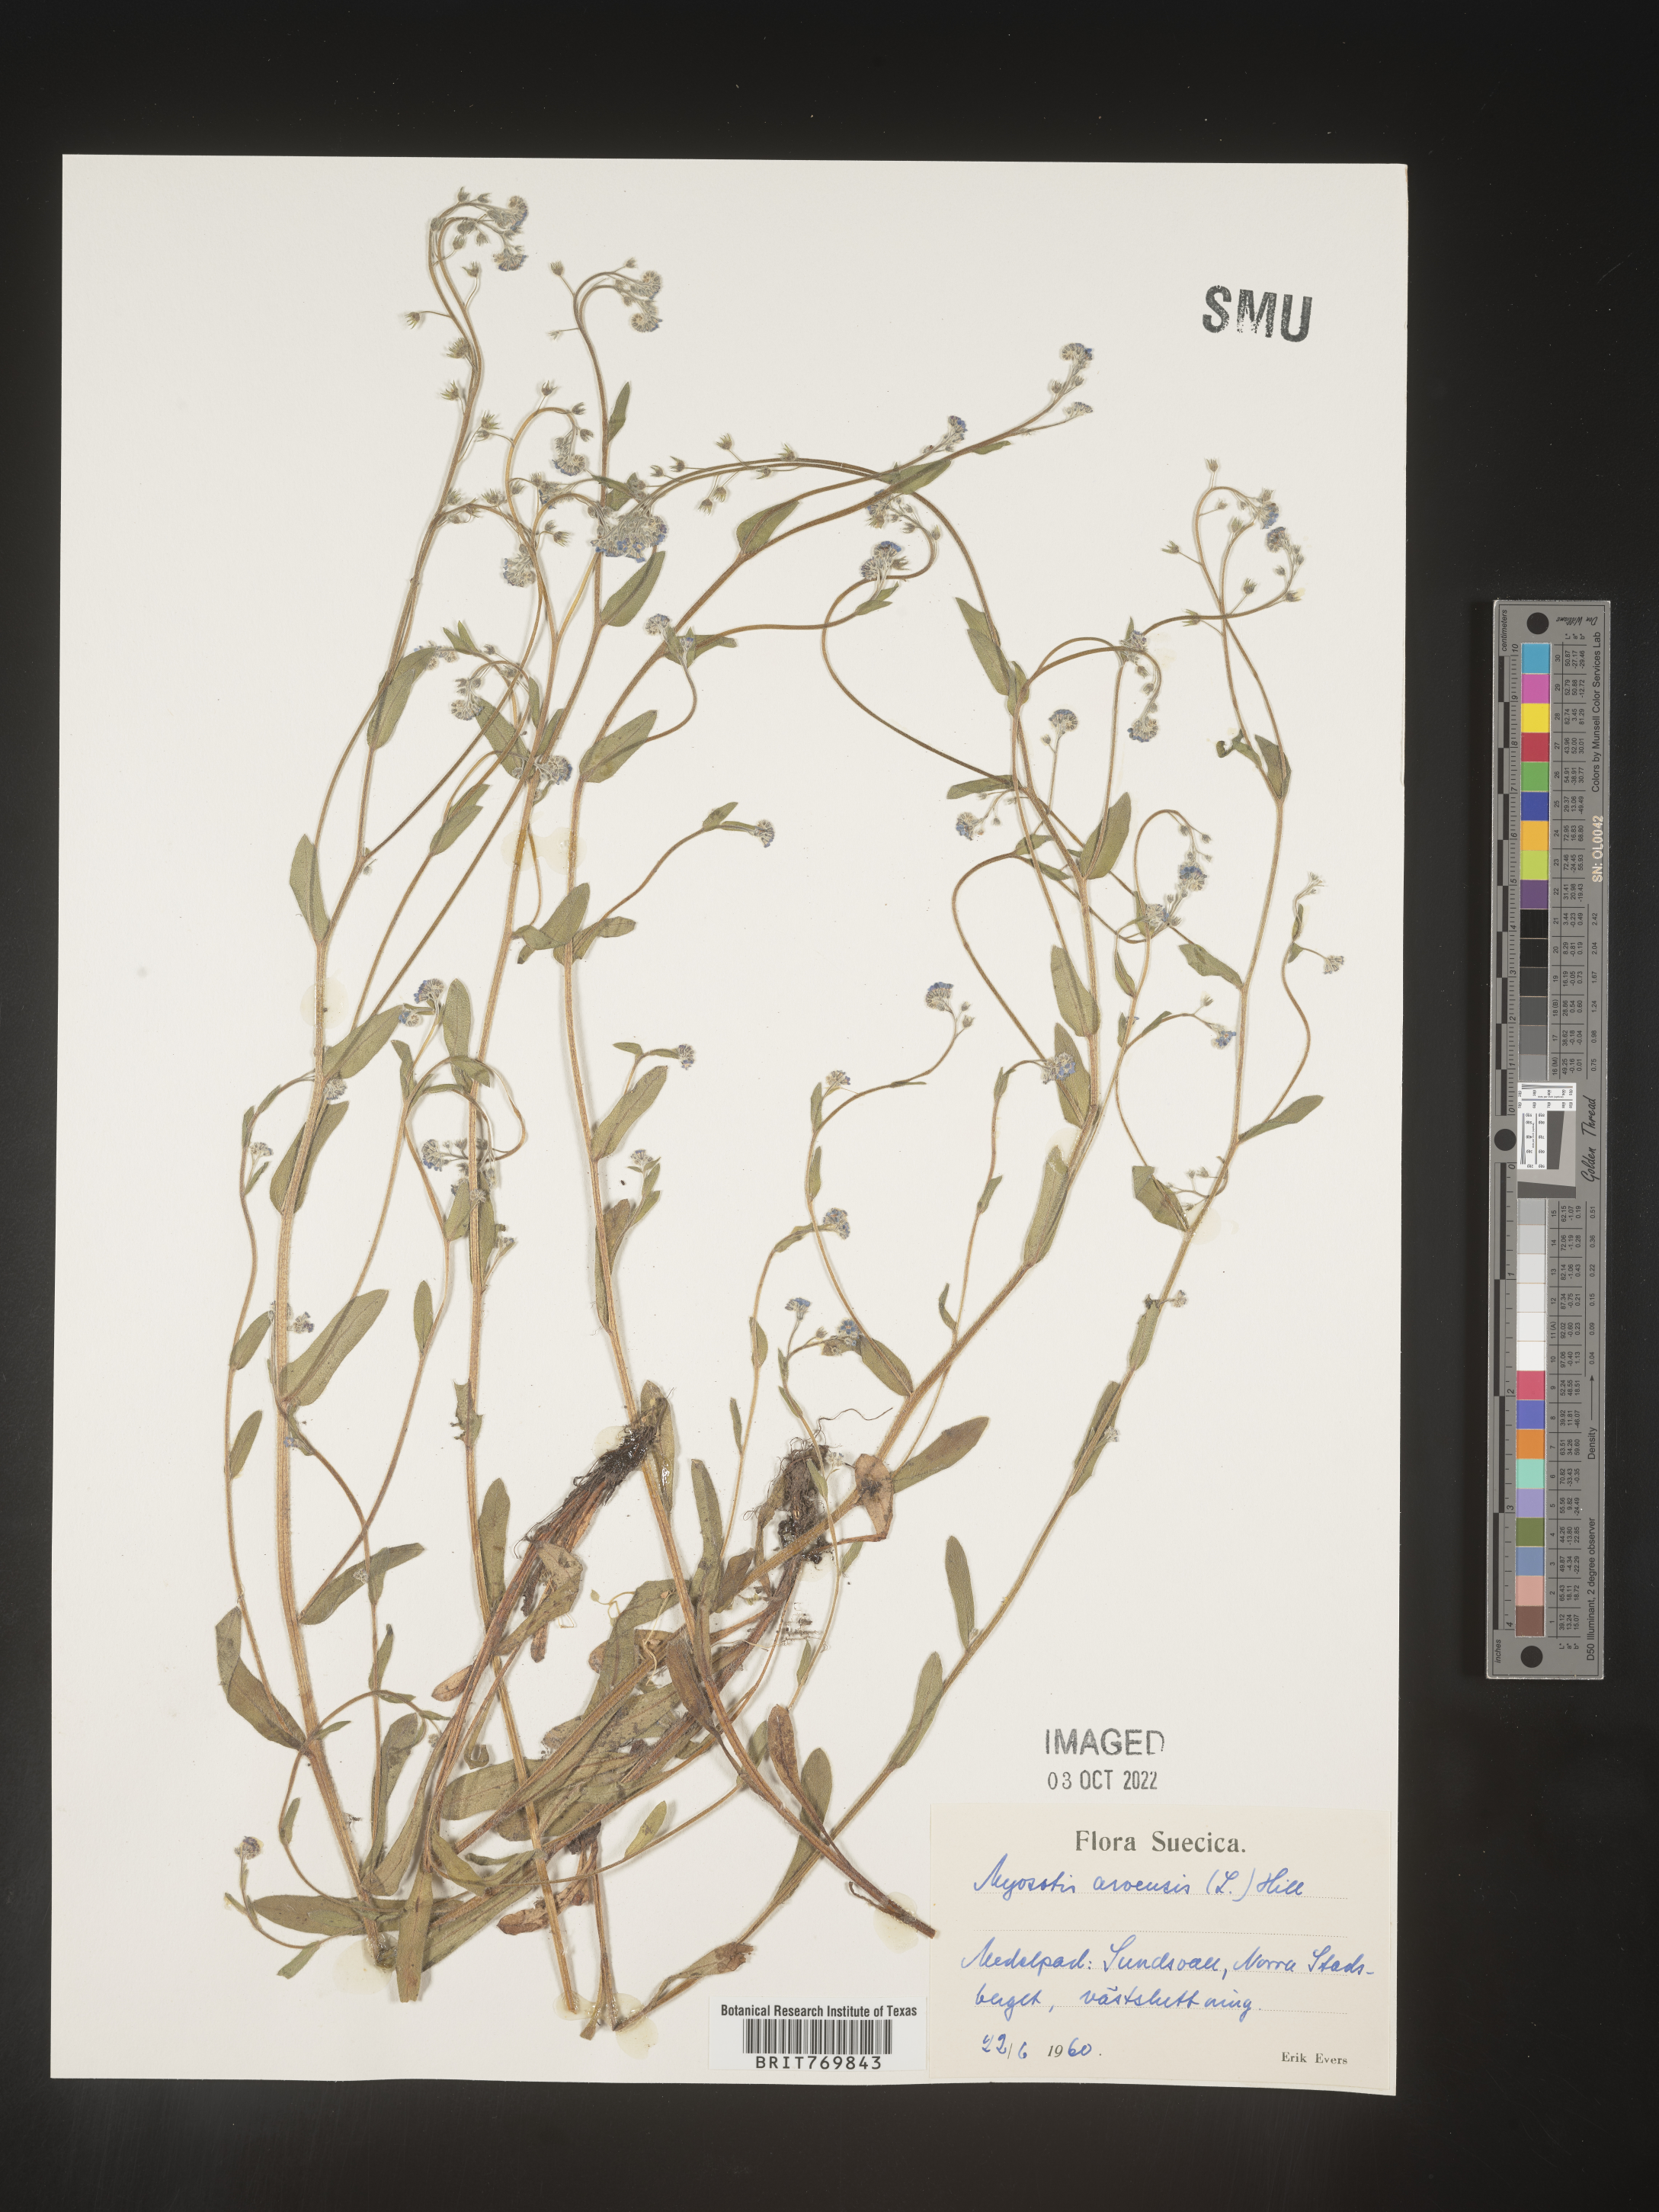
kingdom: Plantae
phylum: Tracheophyta
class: Magnoliopsida
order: Boraginales
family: Boraginaceae
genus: Myosotis
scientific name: Myosotis
